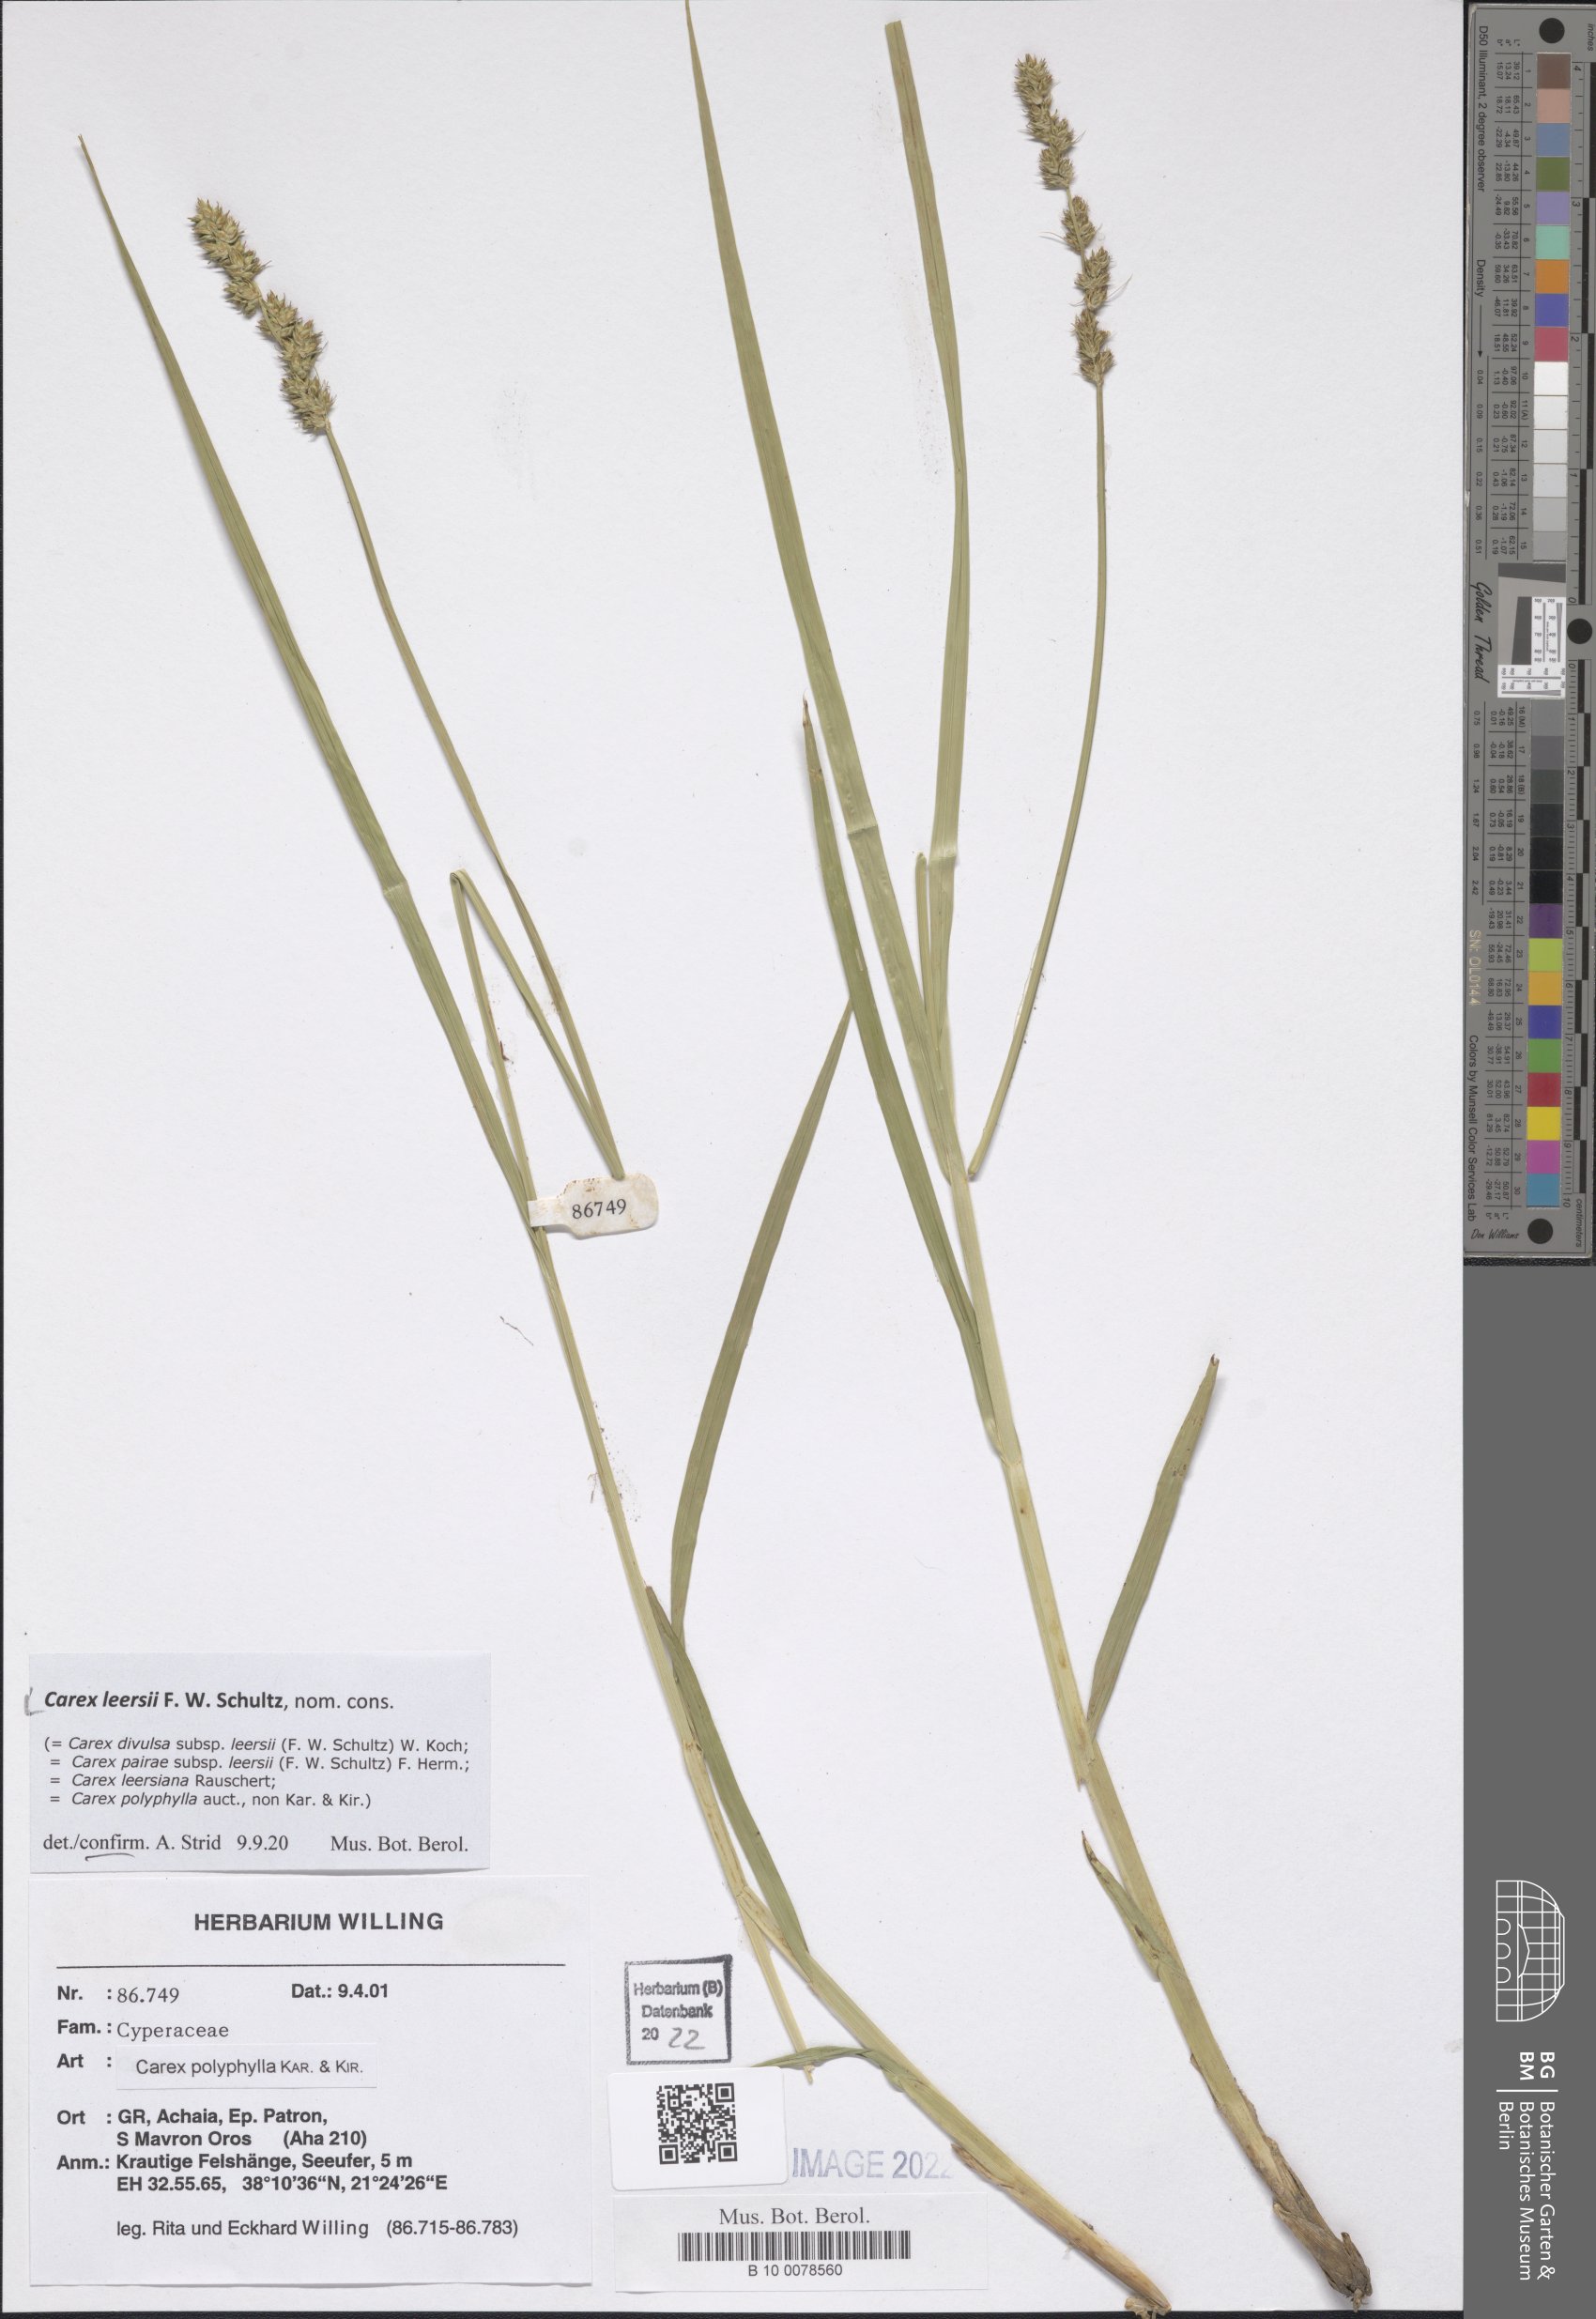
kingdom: Plantae
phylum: Tracheophyta
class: Liliopsida
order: Poales
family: Cyperaceae
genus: Carex
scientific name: Carex leersii
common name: Leers' sedge
